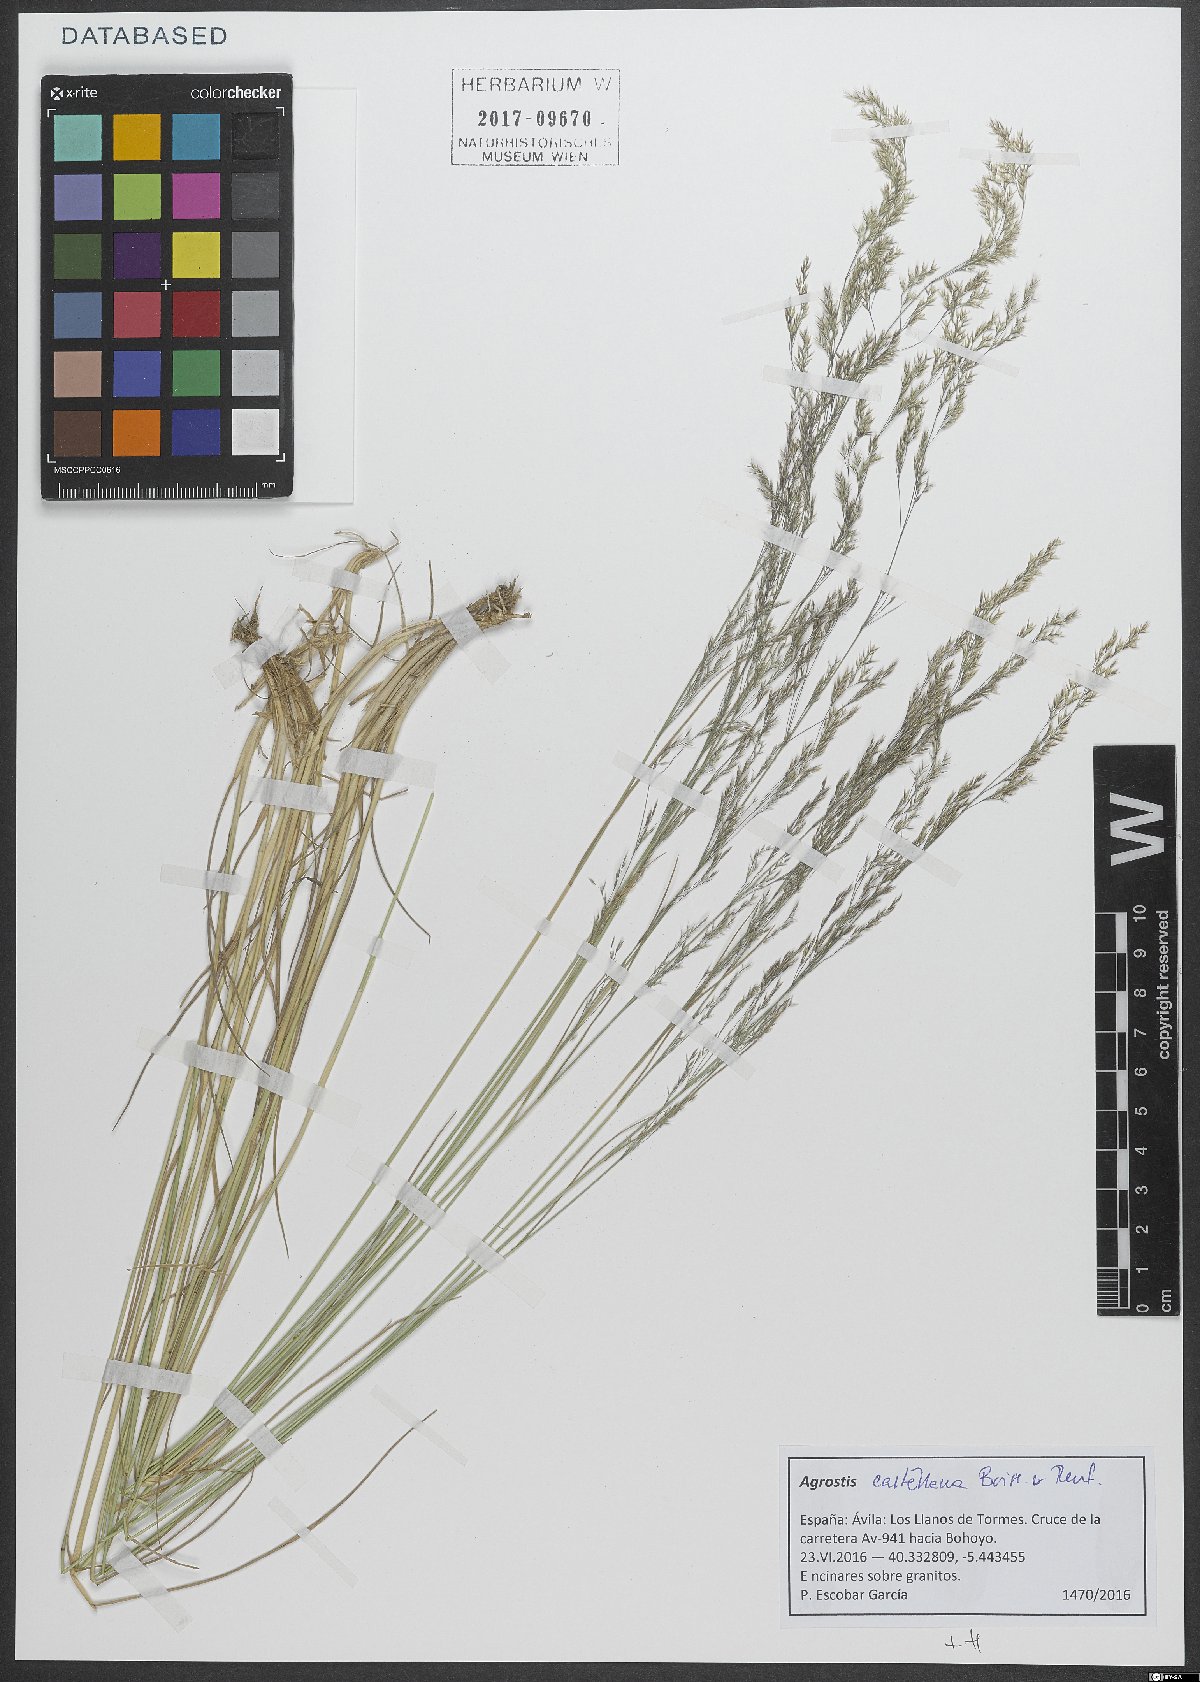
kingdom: Plantae
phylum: Tracheophyta
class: Liliopsida
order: Poales
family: Poaceae
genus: Agrostis
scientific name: Agrostis castellana
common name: Highland bent
